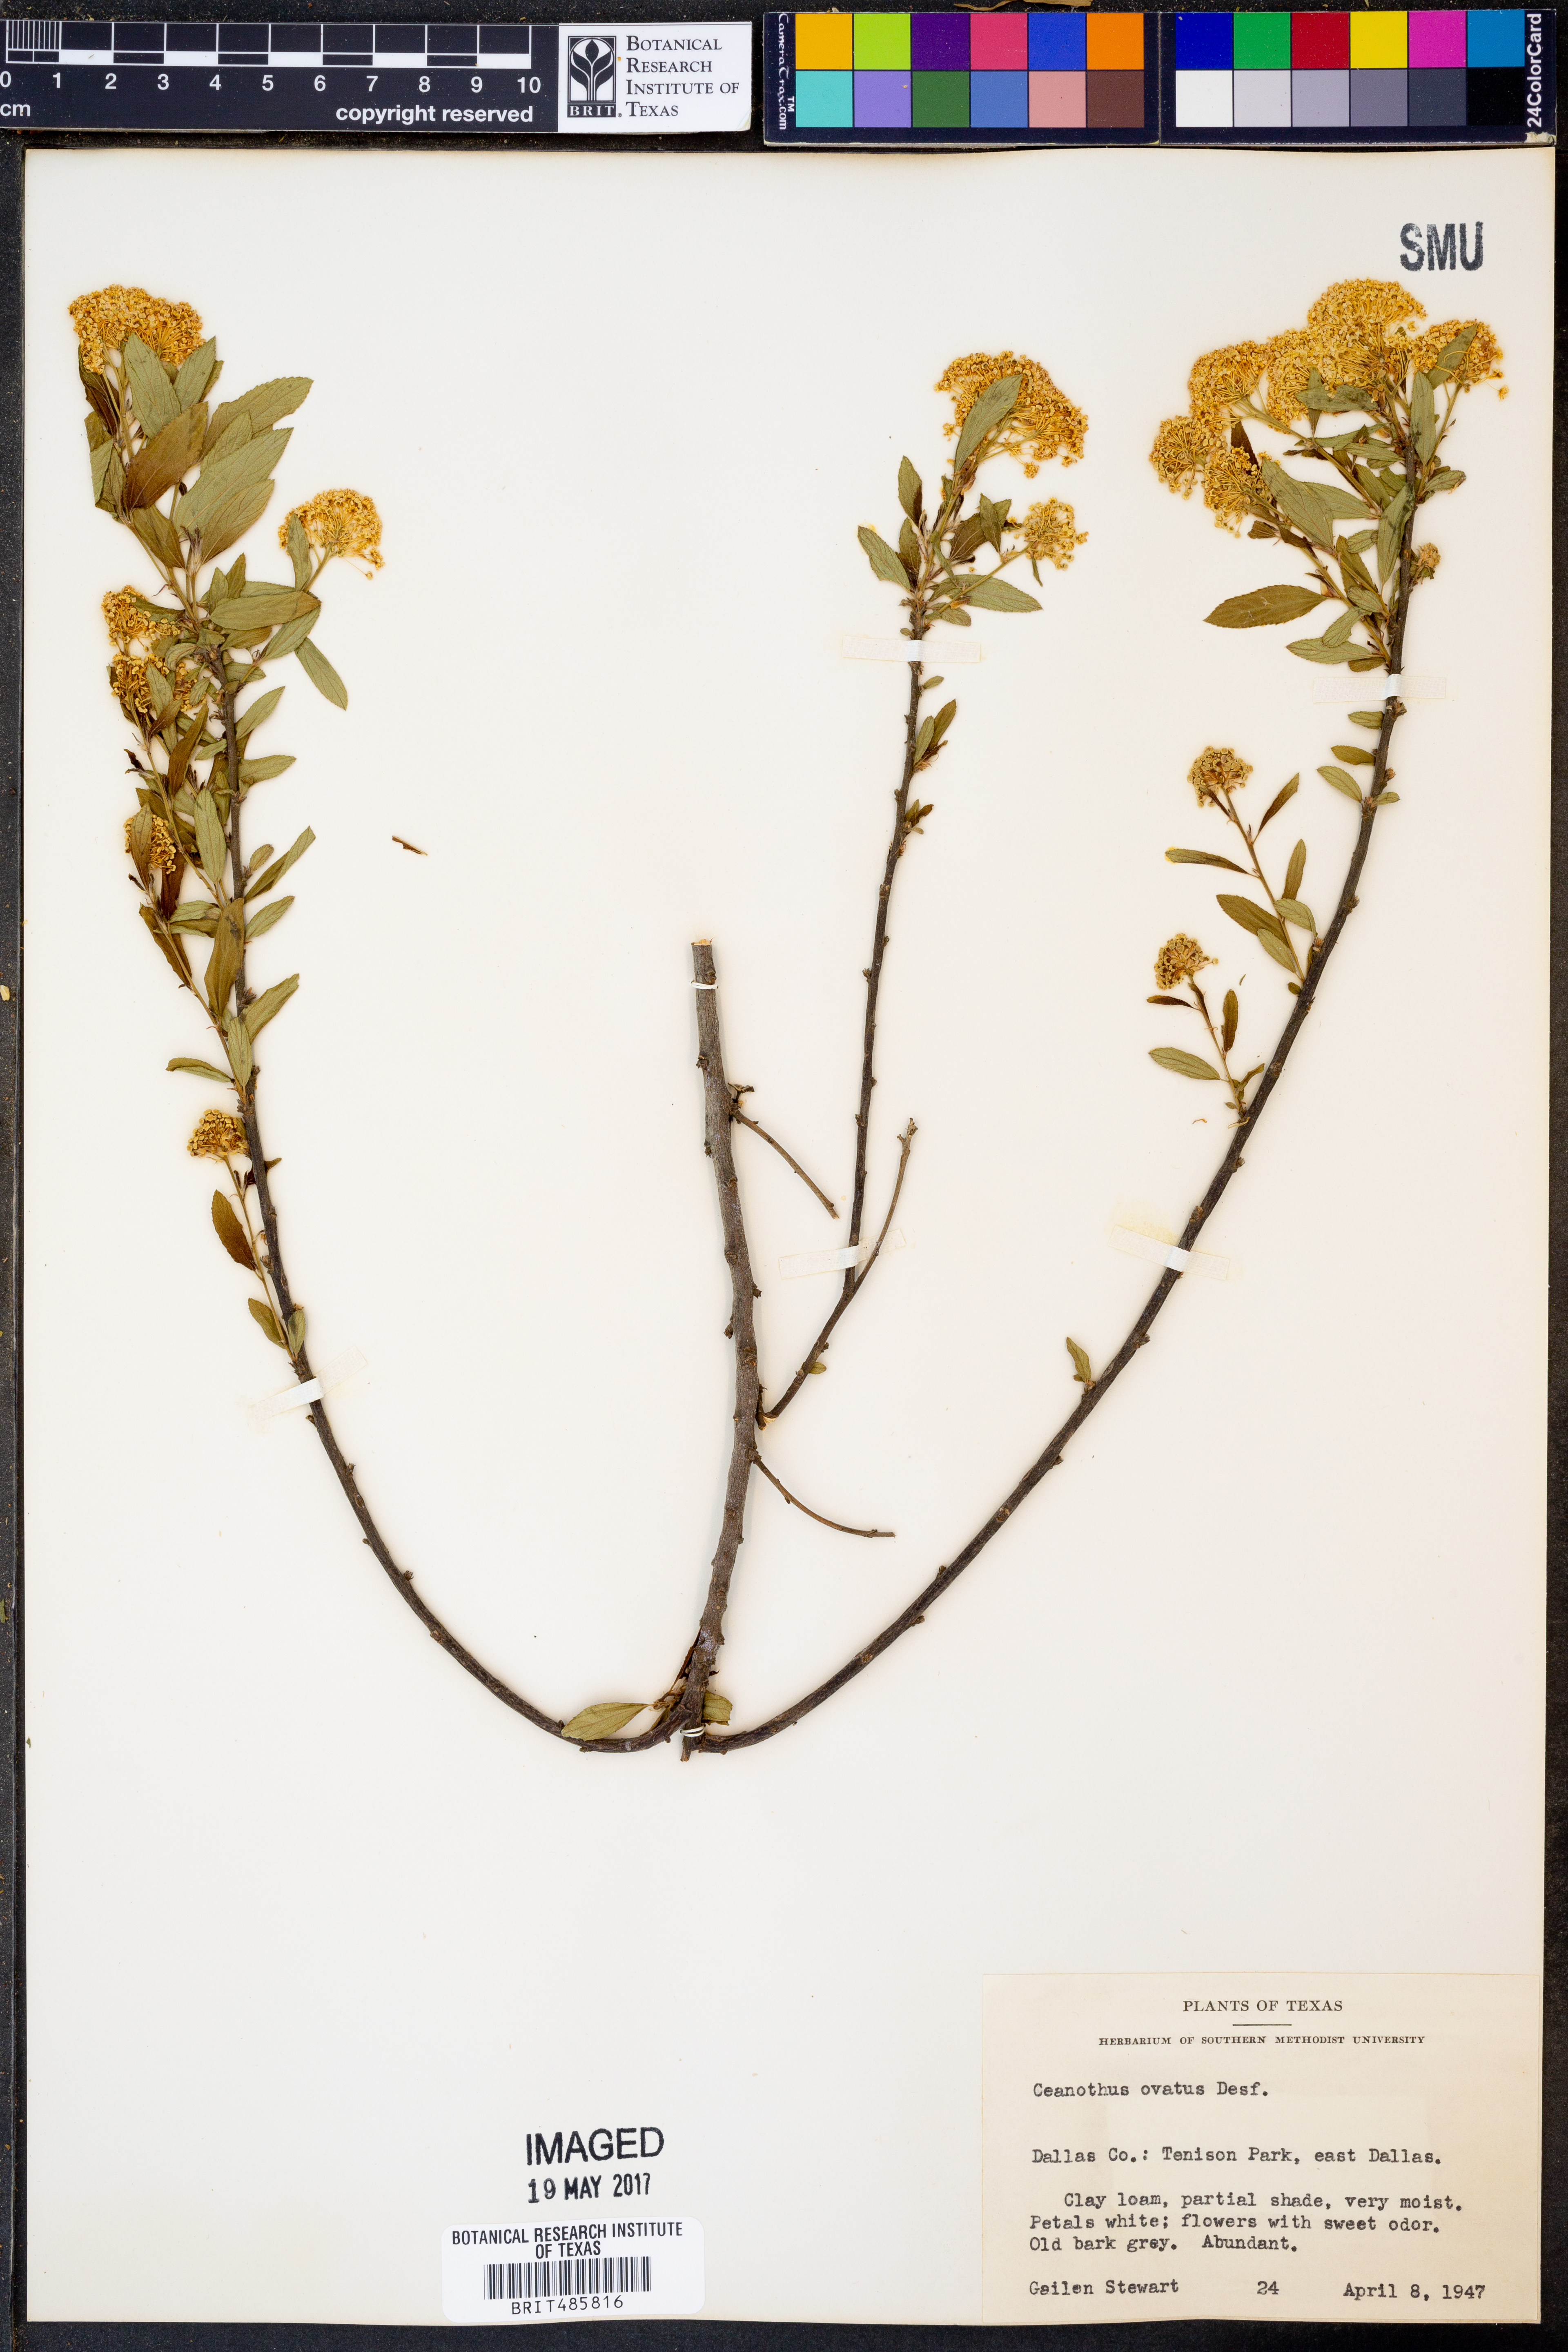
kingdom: Plantae
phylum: Tracheophyta
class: Magnoliopsida
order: Rosales
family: Rhamnaceae
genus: Ceanothus
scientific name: Ceanothus herbaceus
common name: Inland ceanothus
